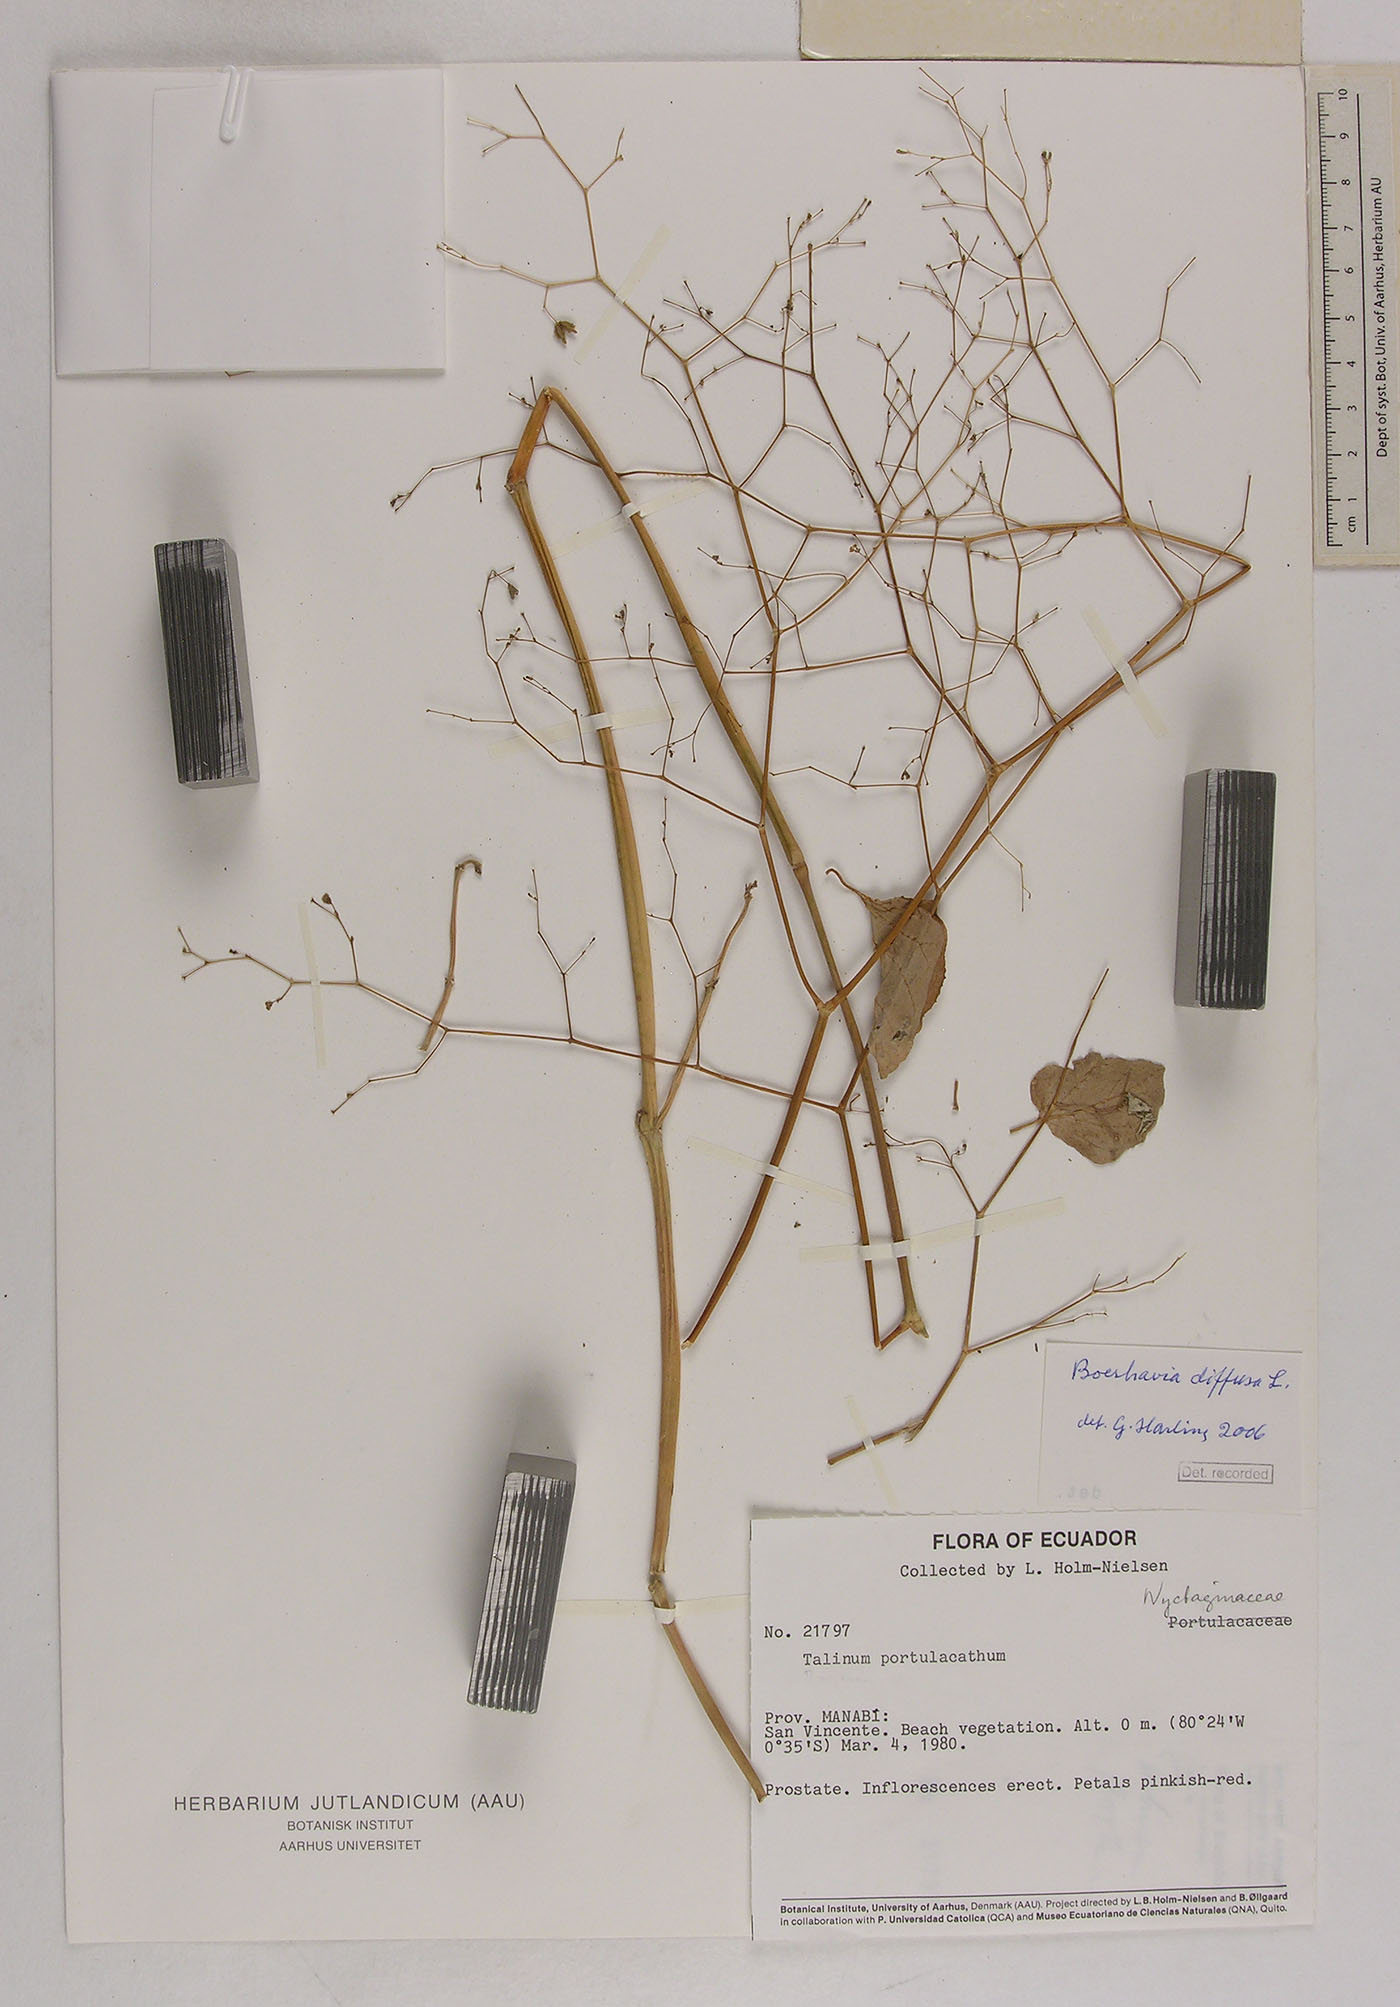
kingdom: Plantae
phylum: Tracheophyta
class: Magnoliopsida
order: Caryophyllales
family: Nyctaginaceae
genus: Boerhavia
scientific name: Boerhavia diffusa
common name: Red spiderling
